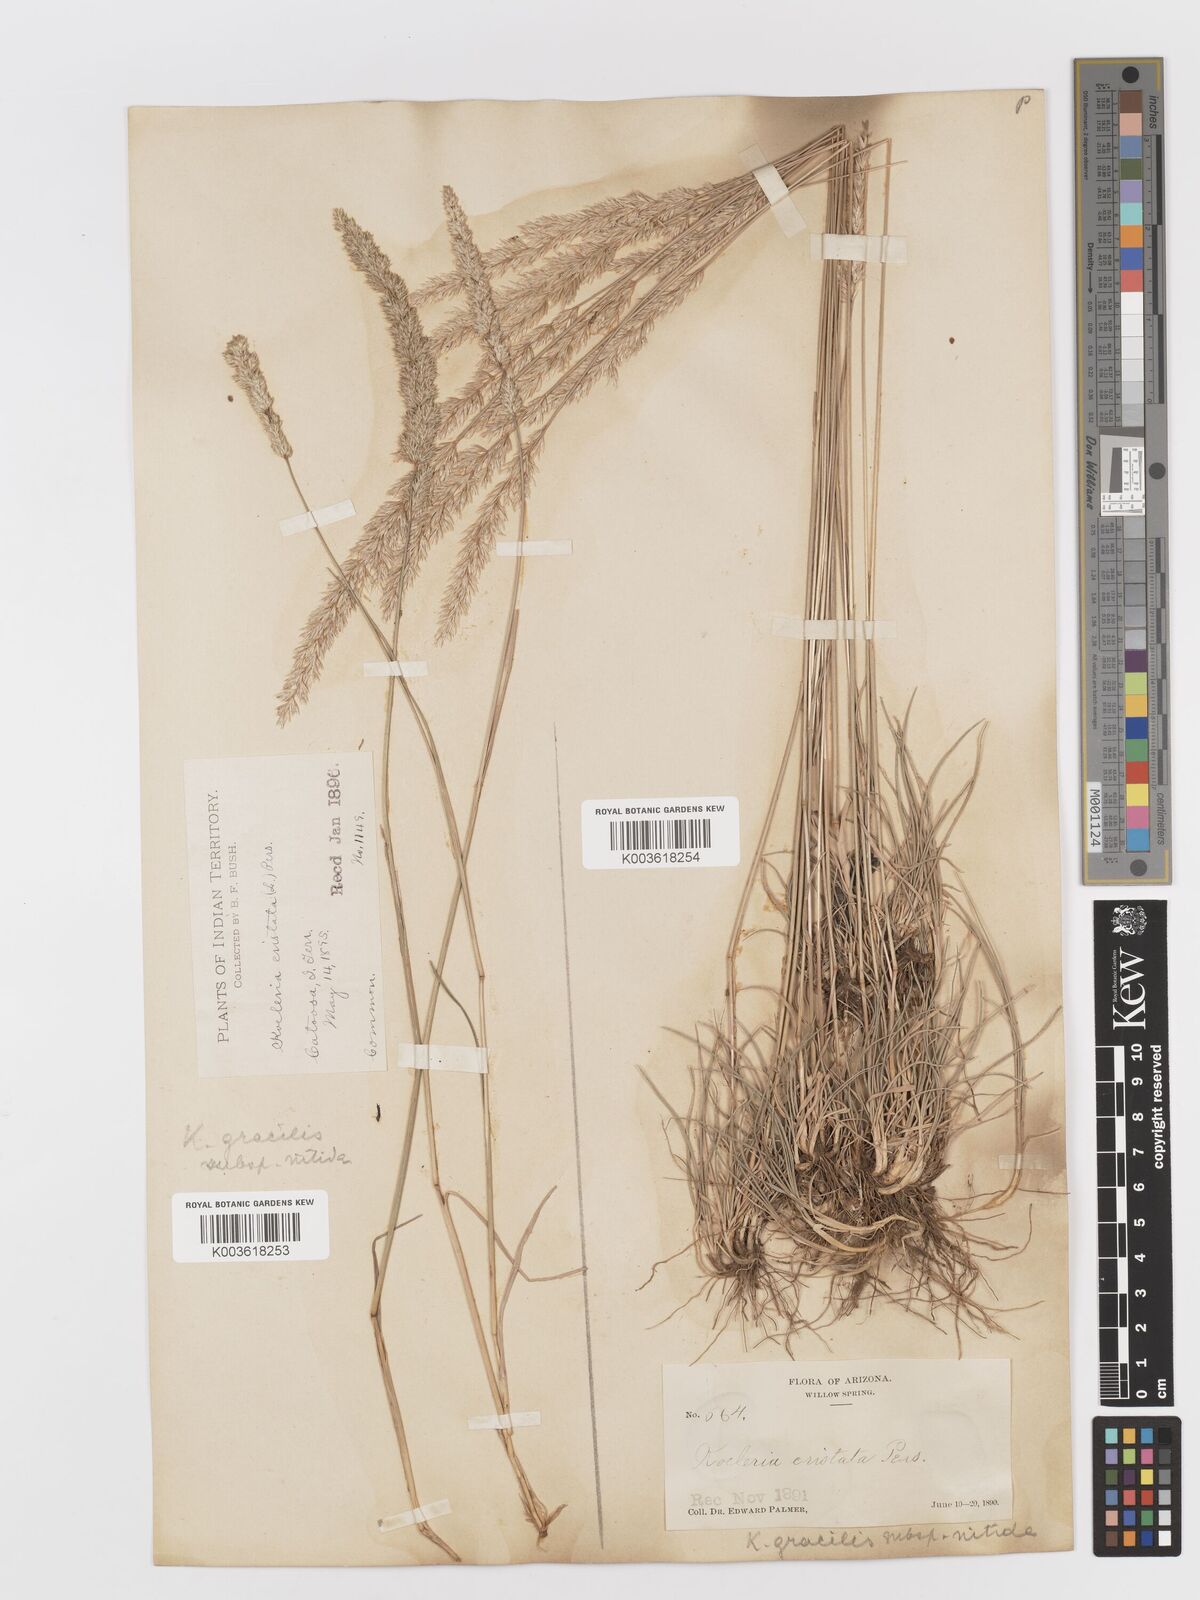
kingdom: Plantae
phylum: Tracheophyta
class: Liliopsida
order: Poales
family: Poaceae
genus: Koeleria
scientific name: Koeleria macrantha
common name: Crested hair-grass
